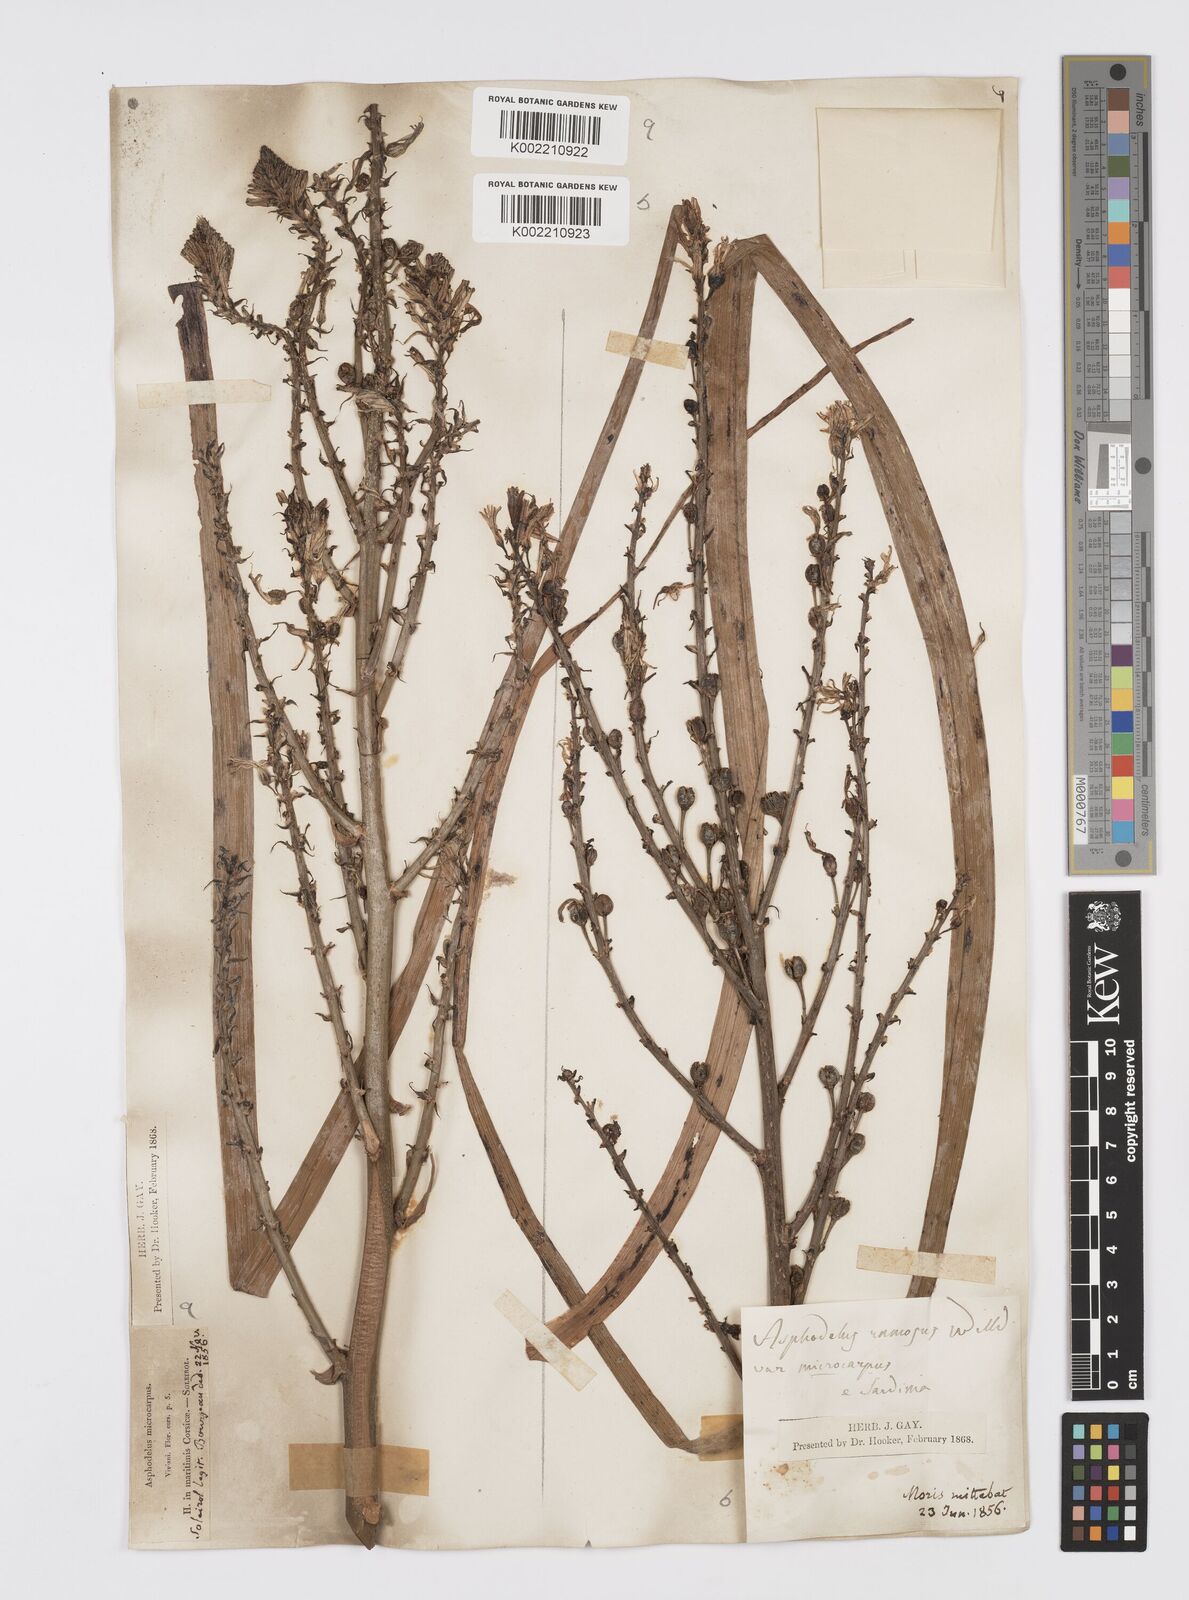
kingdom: Plantae
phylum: Tracheophyta
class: Liliopsida
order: Asparagales
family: Asphodelaceae
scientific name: Asphodelaceae
